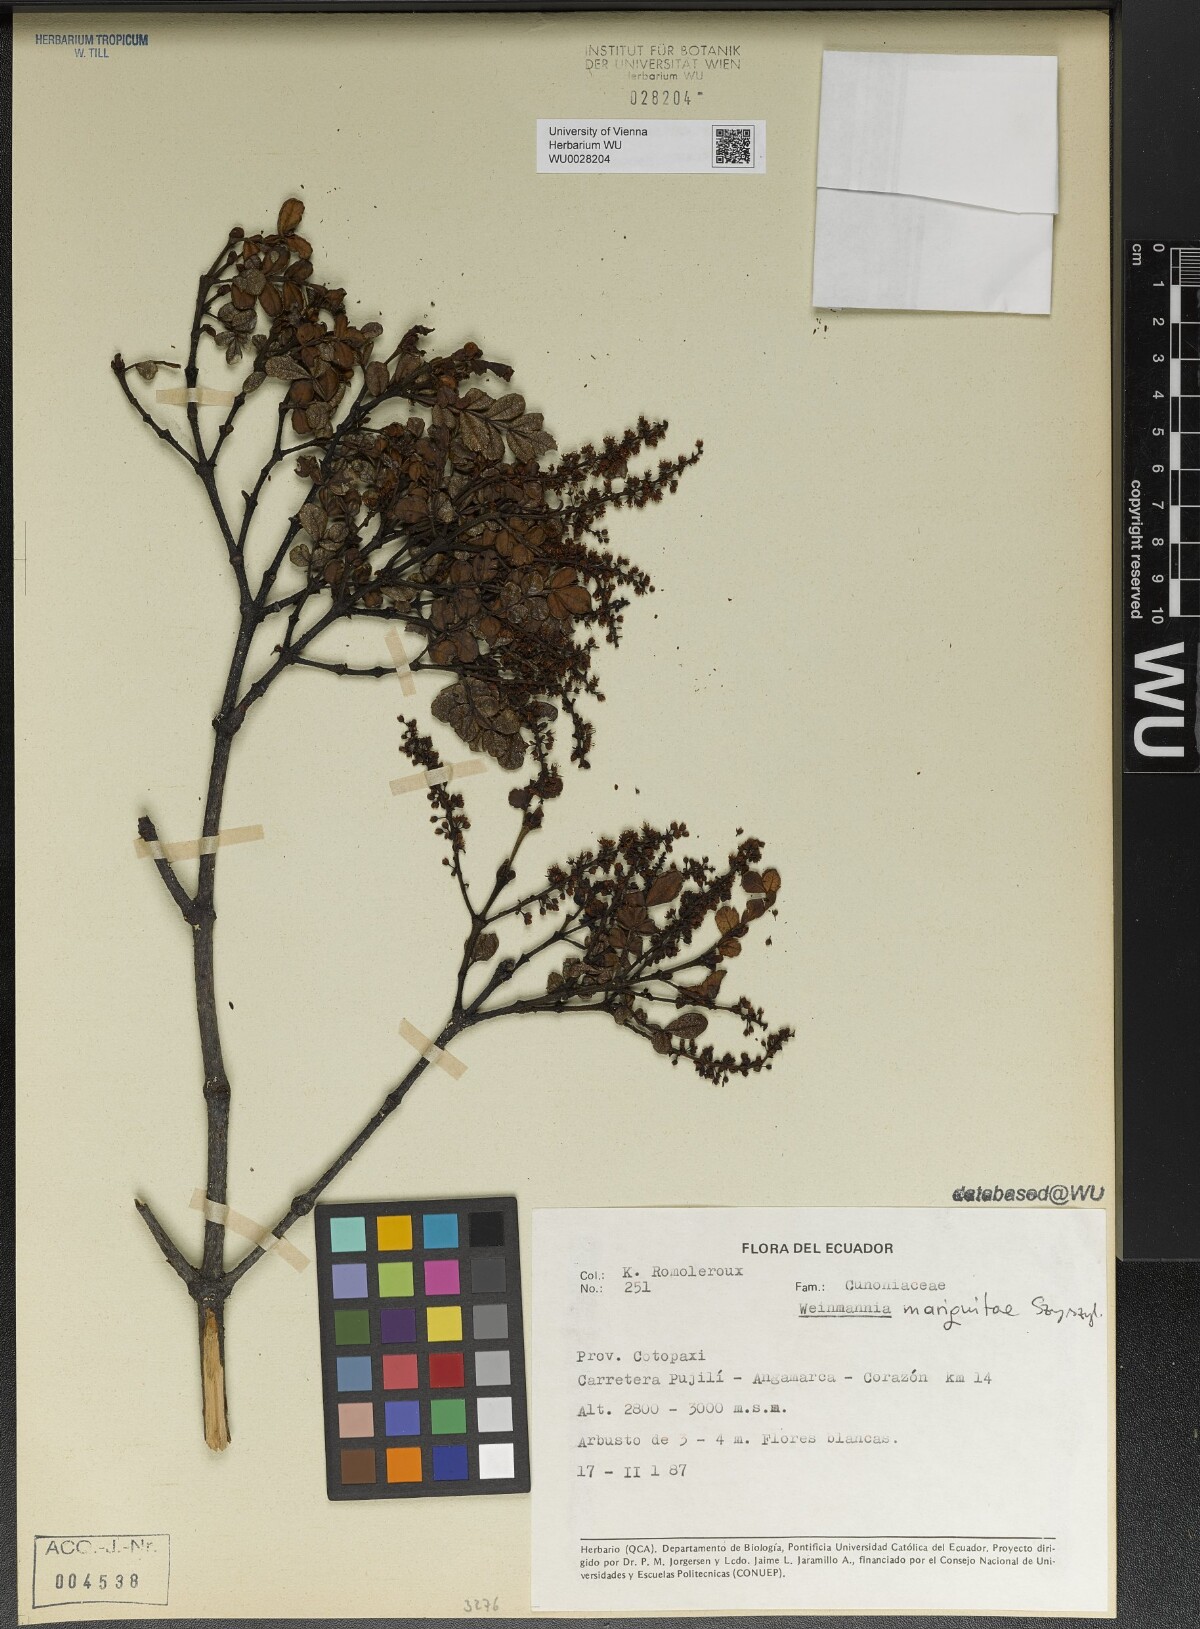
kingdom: Plantae
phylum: Tracheophyta
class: Magnoliopsida
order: Oxalidales
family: Cunoniaceae
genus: Weinmannia
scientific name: Weinmannia mariquitae
